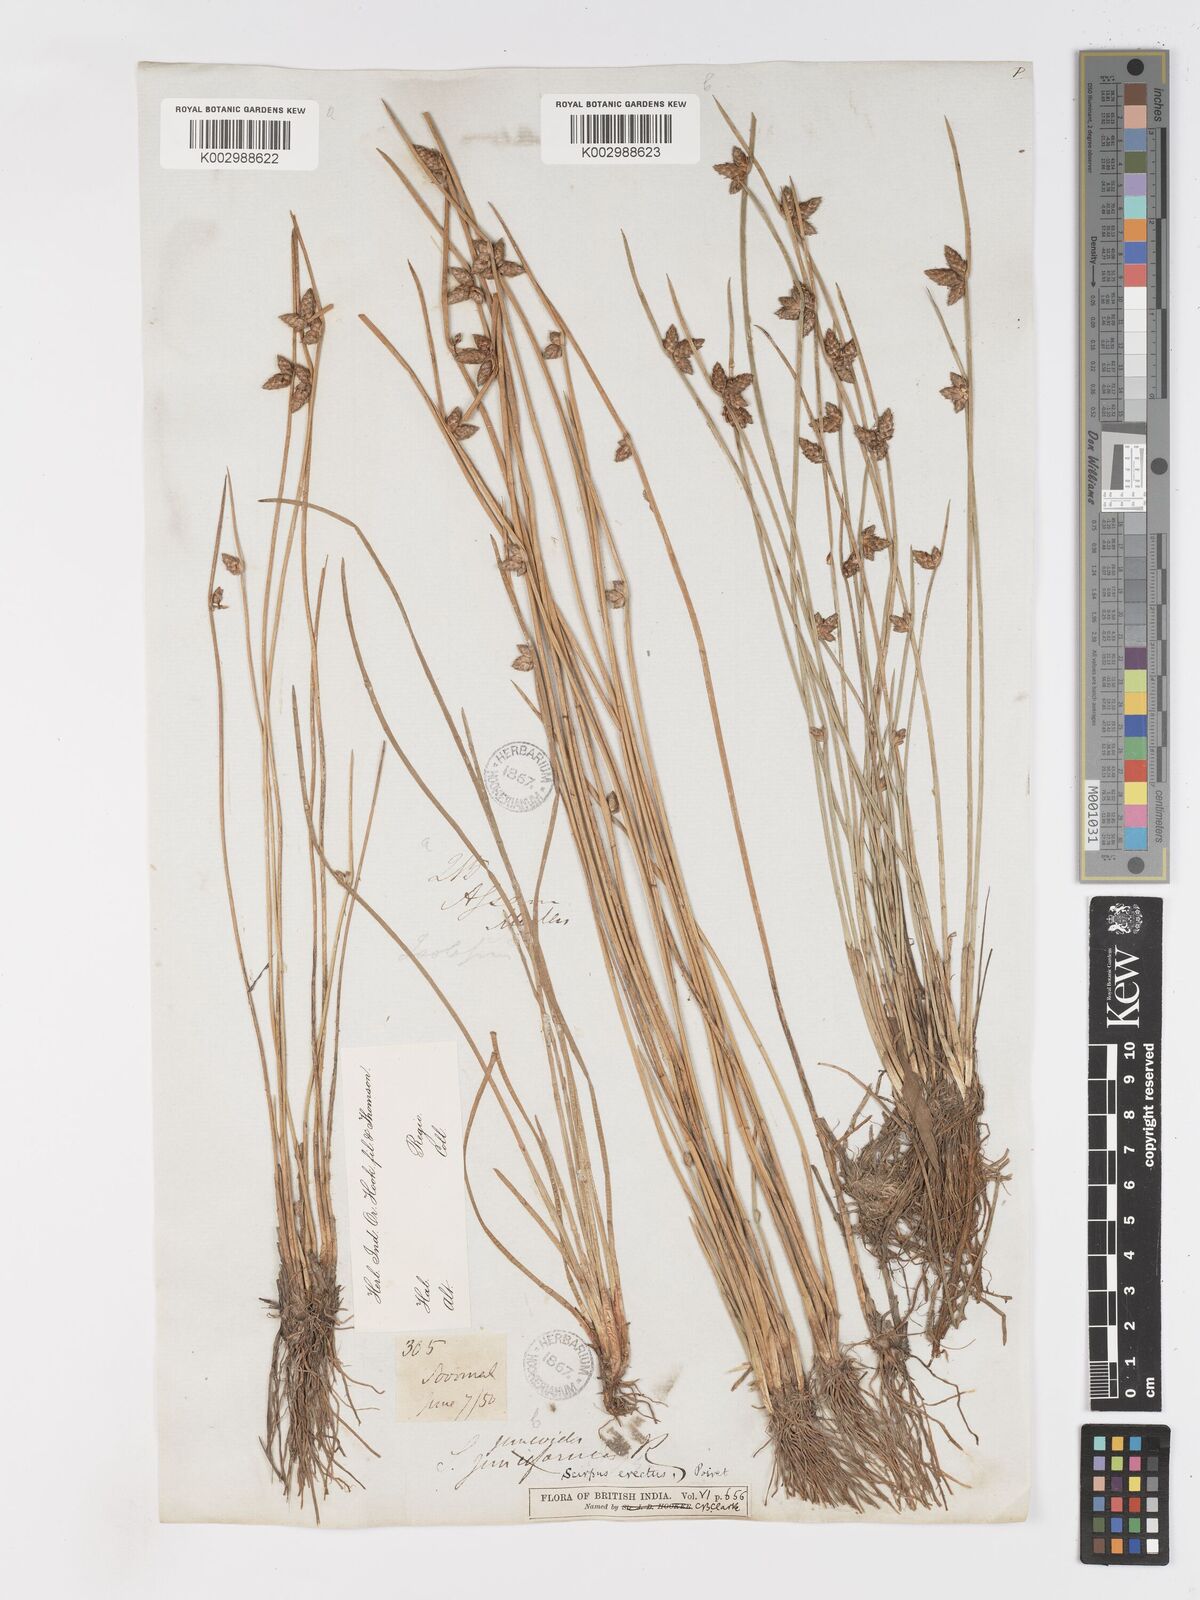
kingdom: Plantae
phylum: Tracheophyta
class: Liliopsida
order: Poales
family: Cyperaceae
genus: Schoenoplectiella
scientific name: Schoenoplectiella juncoides
